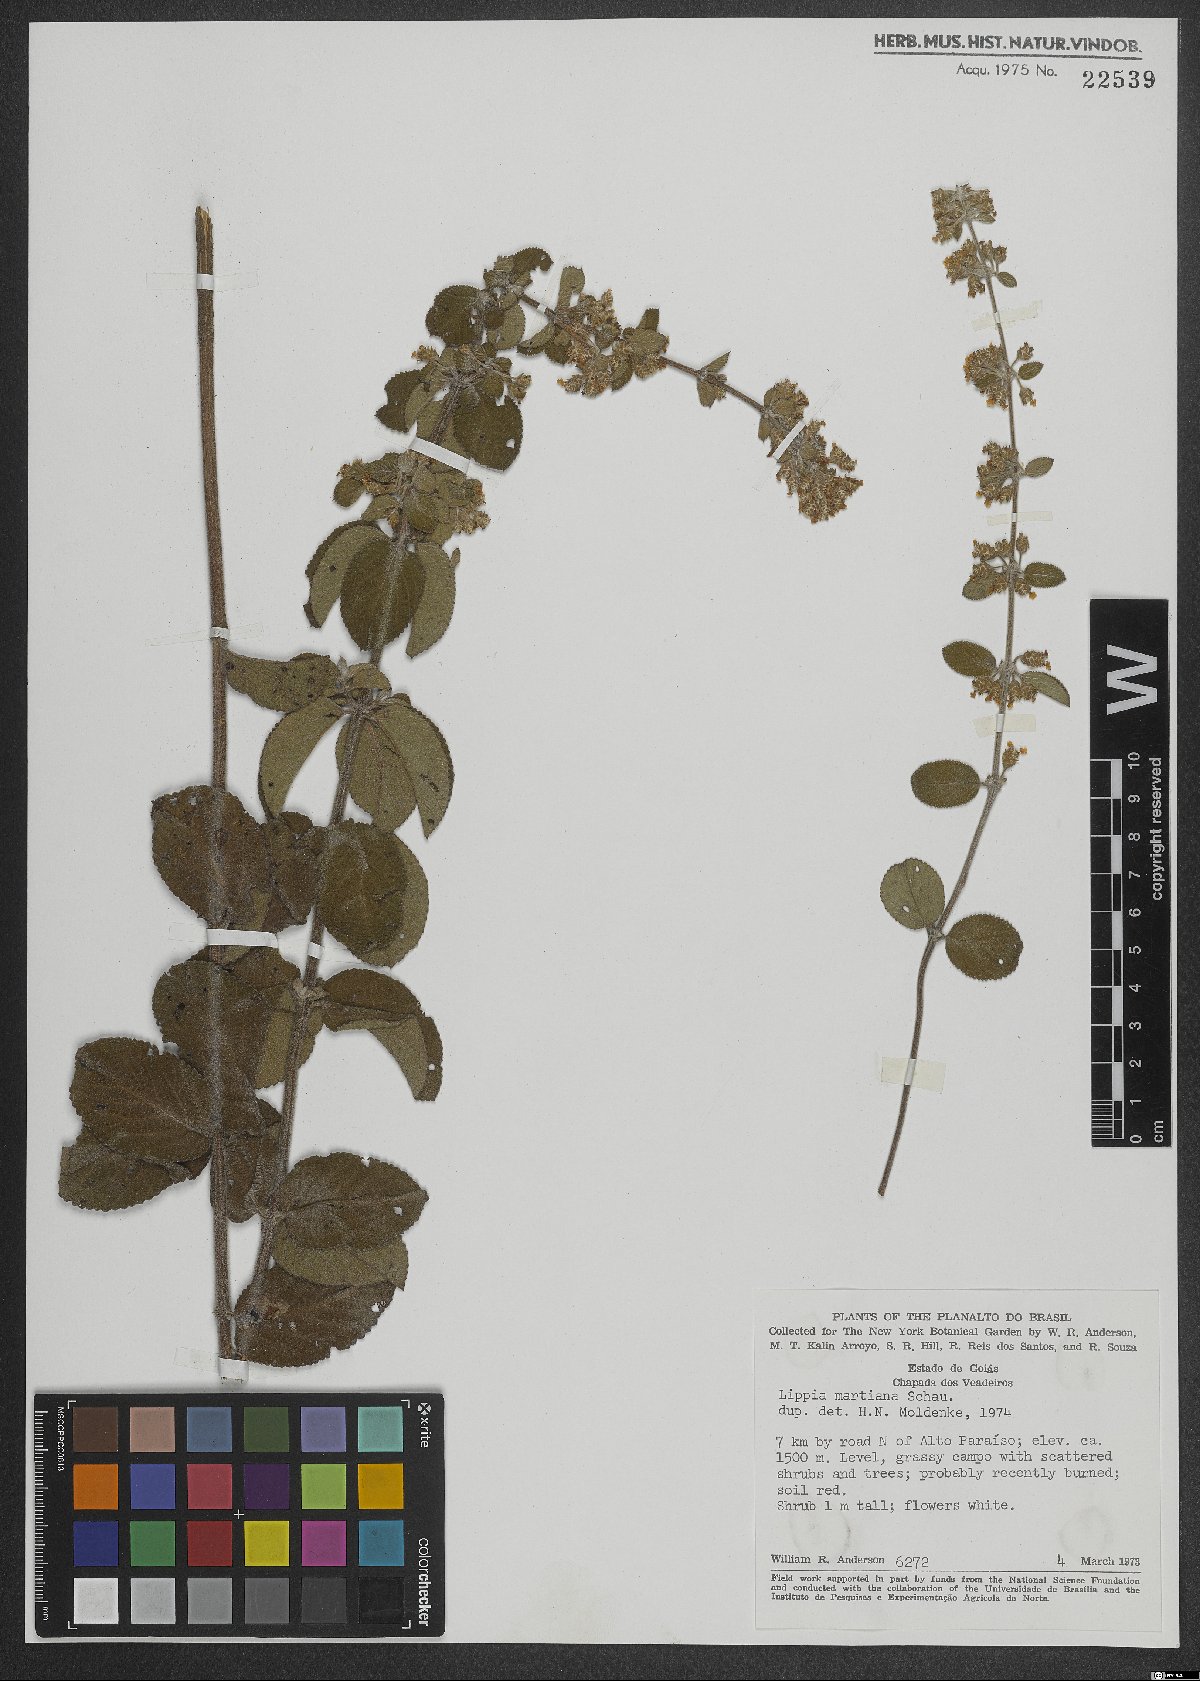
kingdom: Plantae
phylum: Tracheophyta
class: Magnoliopsida
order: Lamiales
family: Verbenaceae
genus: Lippia
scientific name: Lippia martiana
